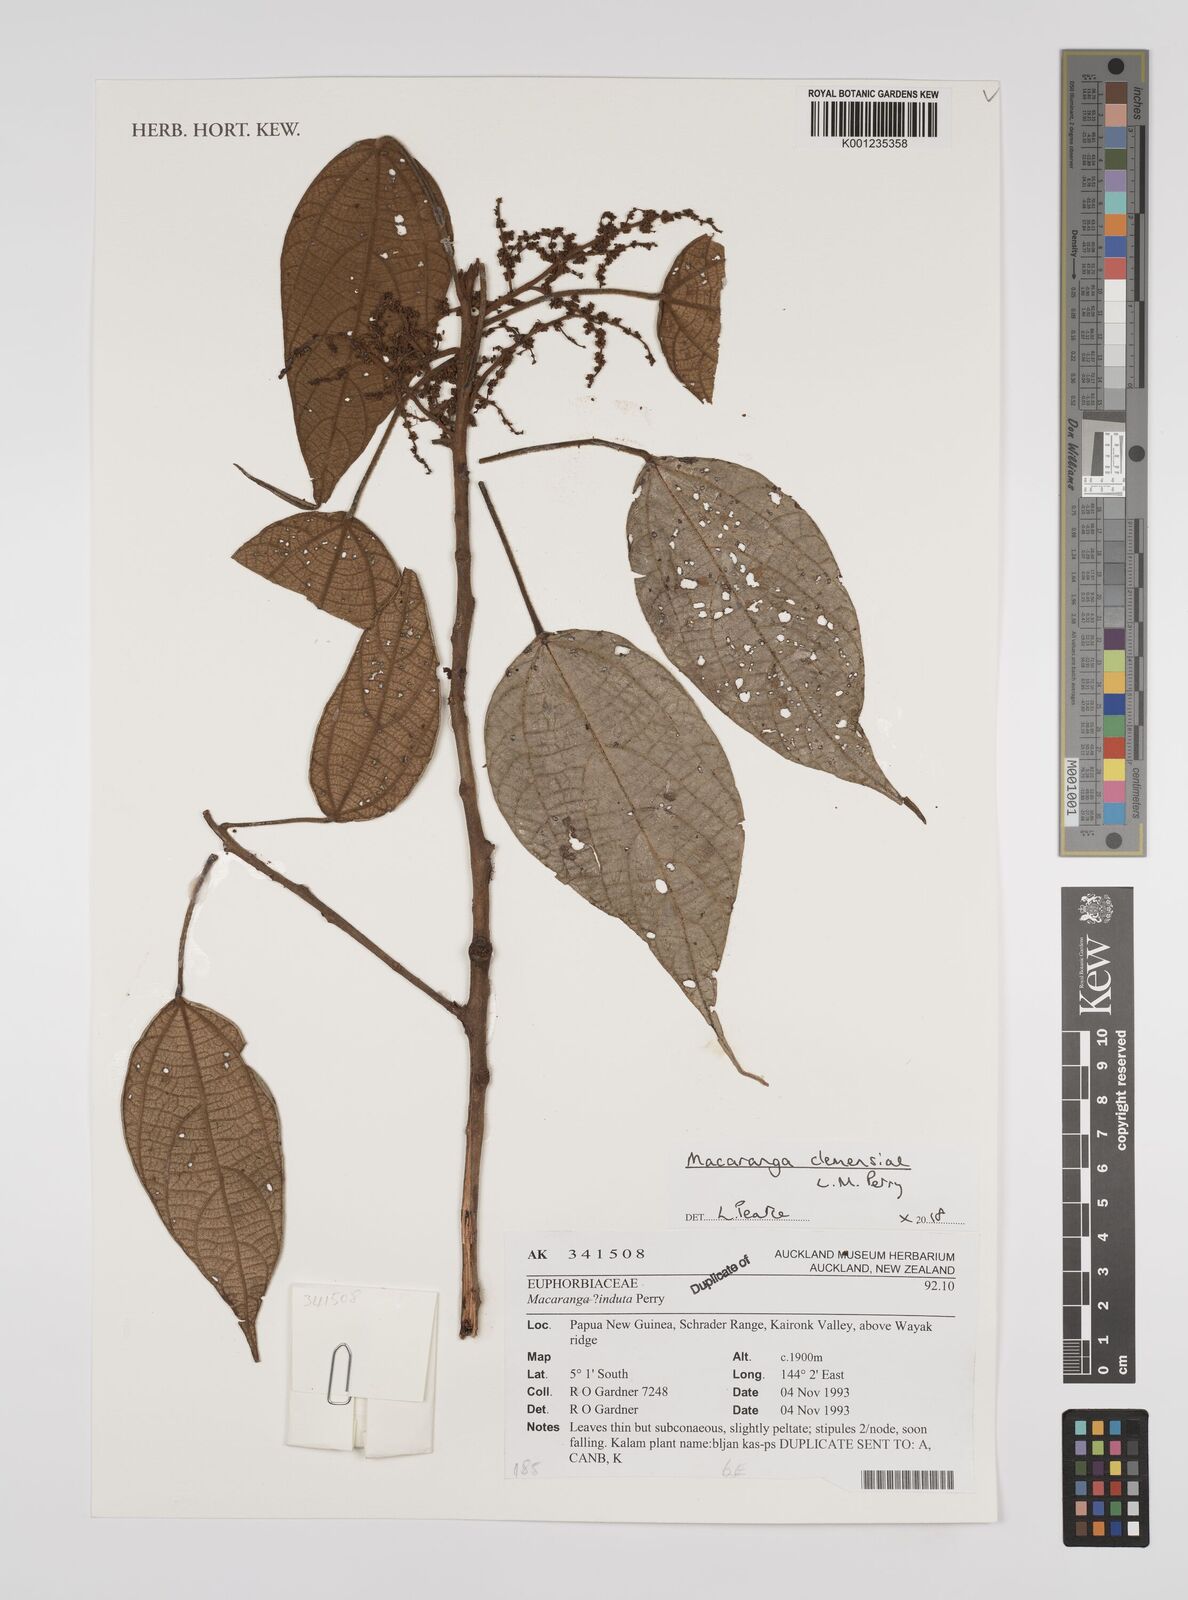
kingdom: Plantae
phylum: Tracheophyta
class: Magnoliopsida
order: Malpighiales
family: Euphorbiaceae
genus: Macaranga
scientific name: Macaranga clemensiae
